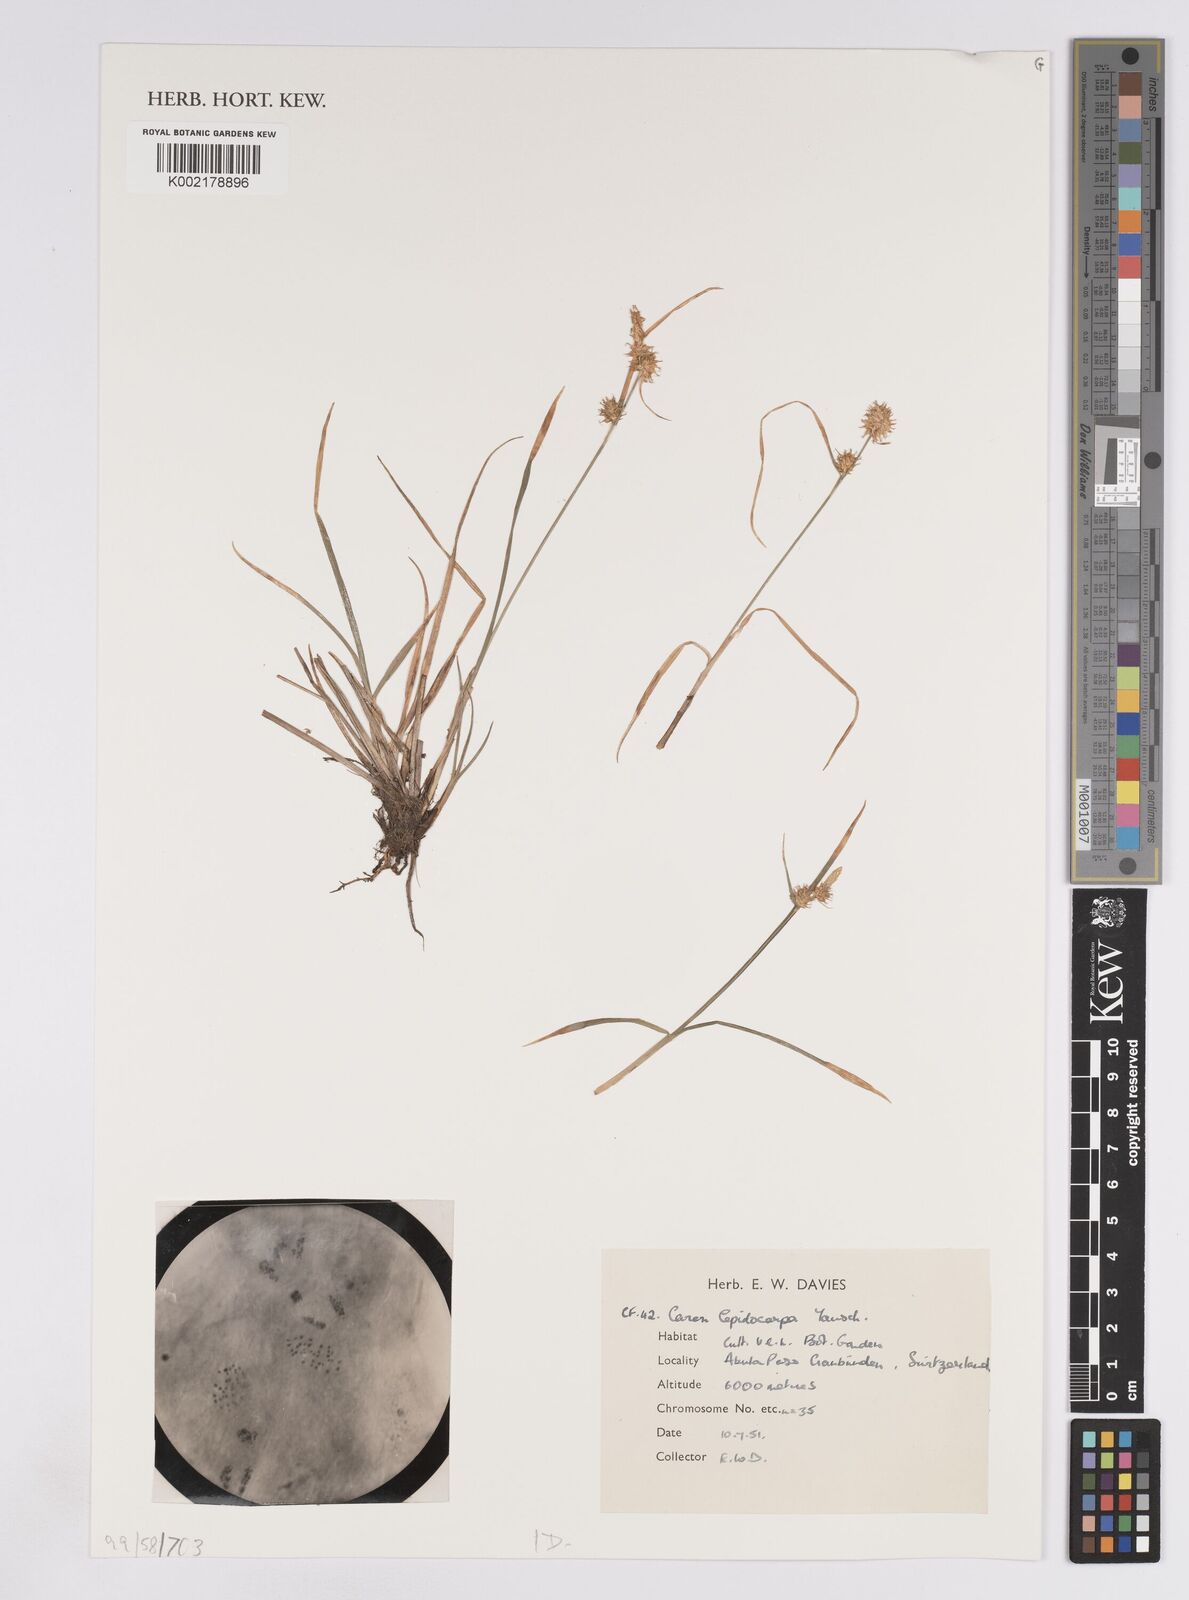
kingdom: Plantae
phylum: Tracheophyta
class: Liliopsida
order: Poales
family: Cyperaceae
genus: Carex
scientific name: Carex lepidocarpa
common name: Long-stalked yellow-sedge
